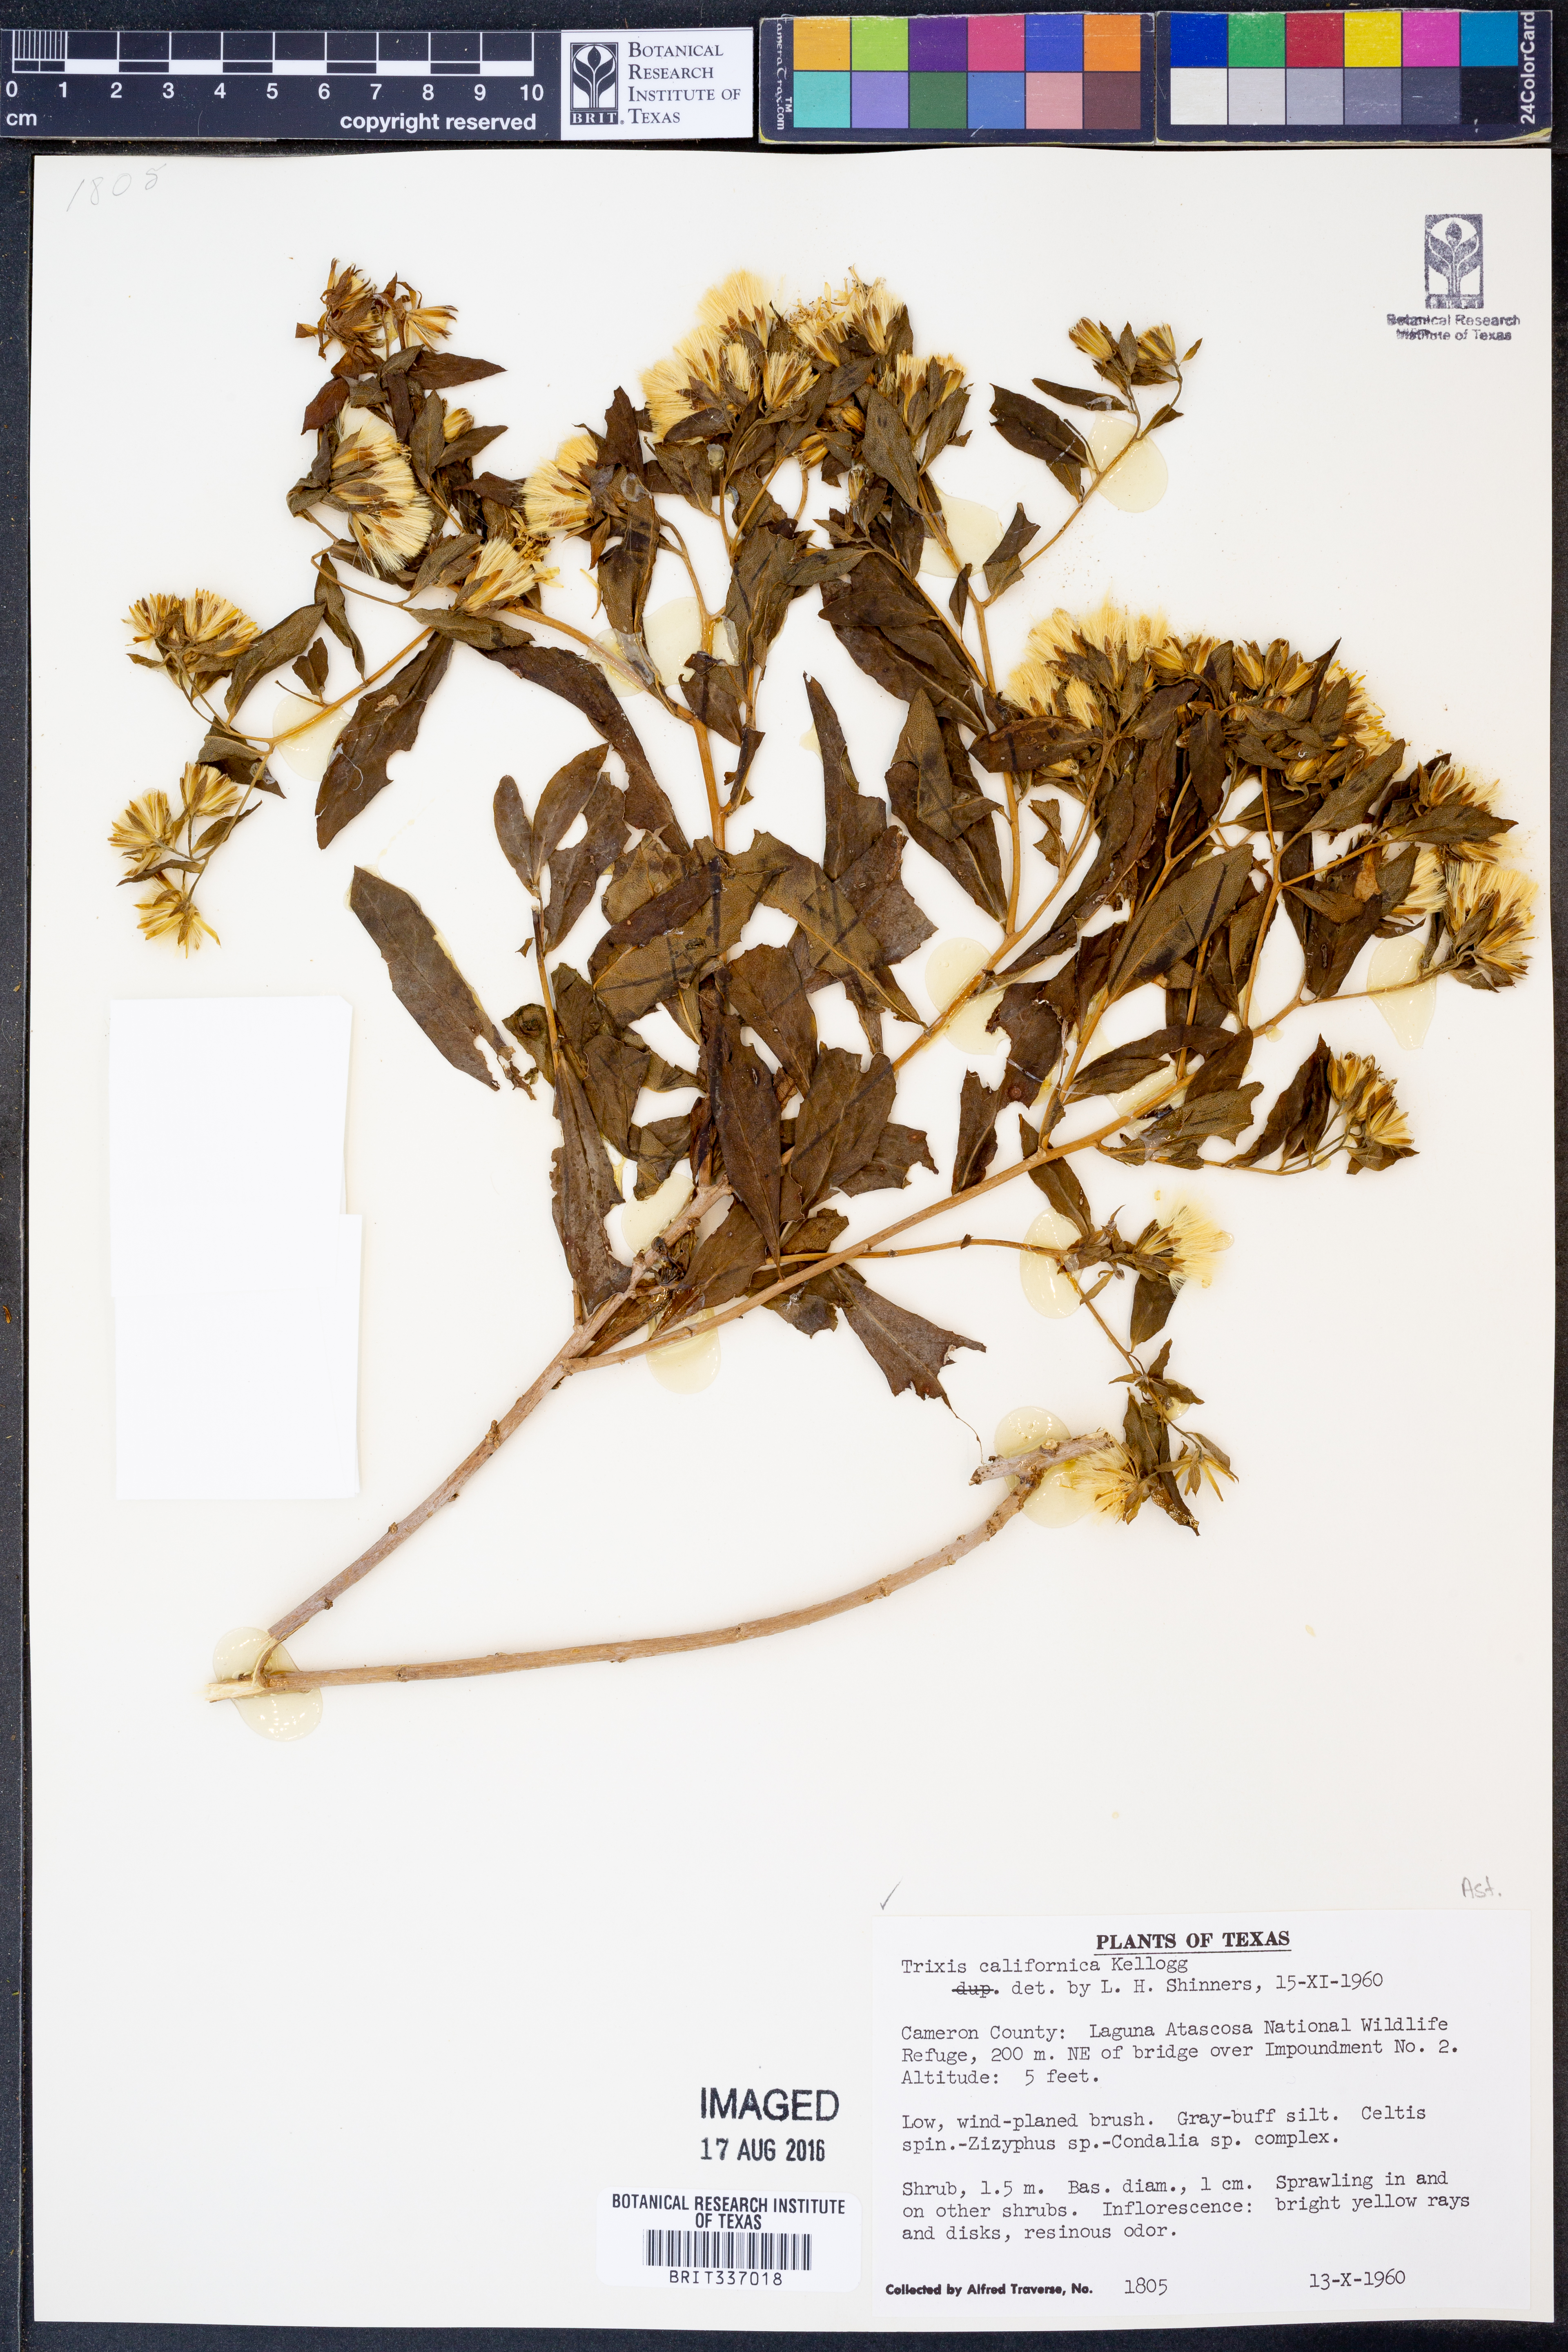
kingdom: Plantae
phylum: Tracheophyta
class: Magnoliopsida
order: Asterales
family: Asteraceae
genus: Trixis
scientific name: Trixis californica
